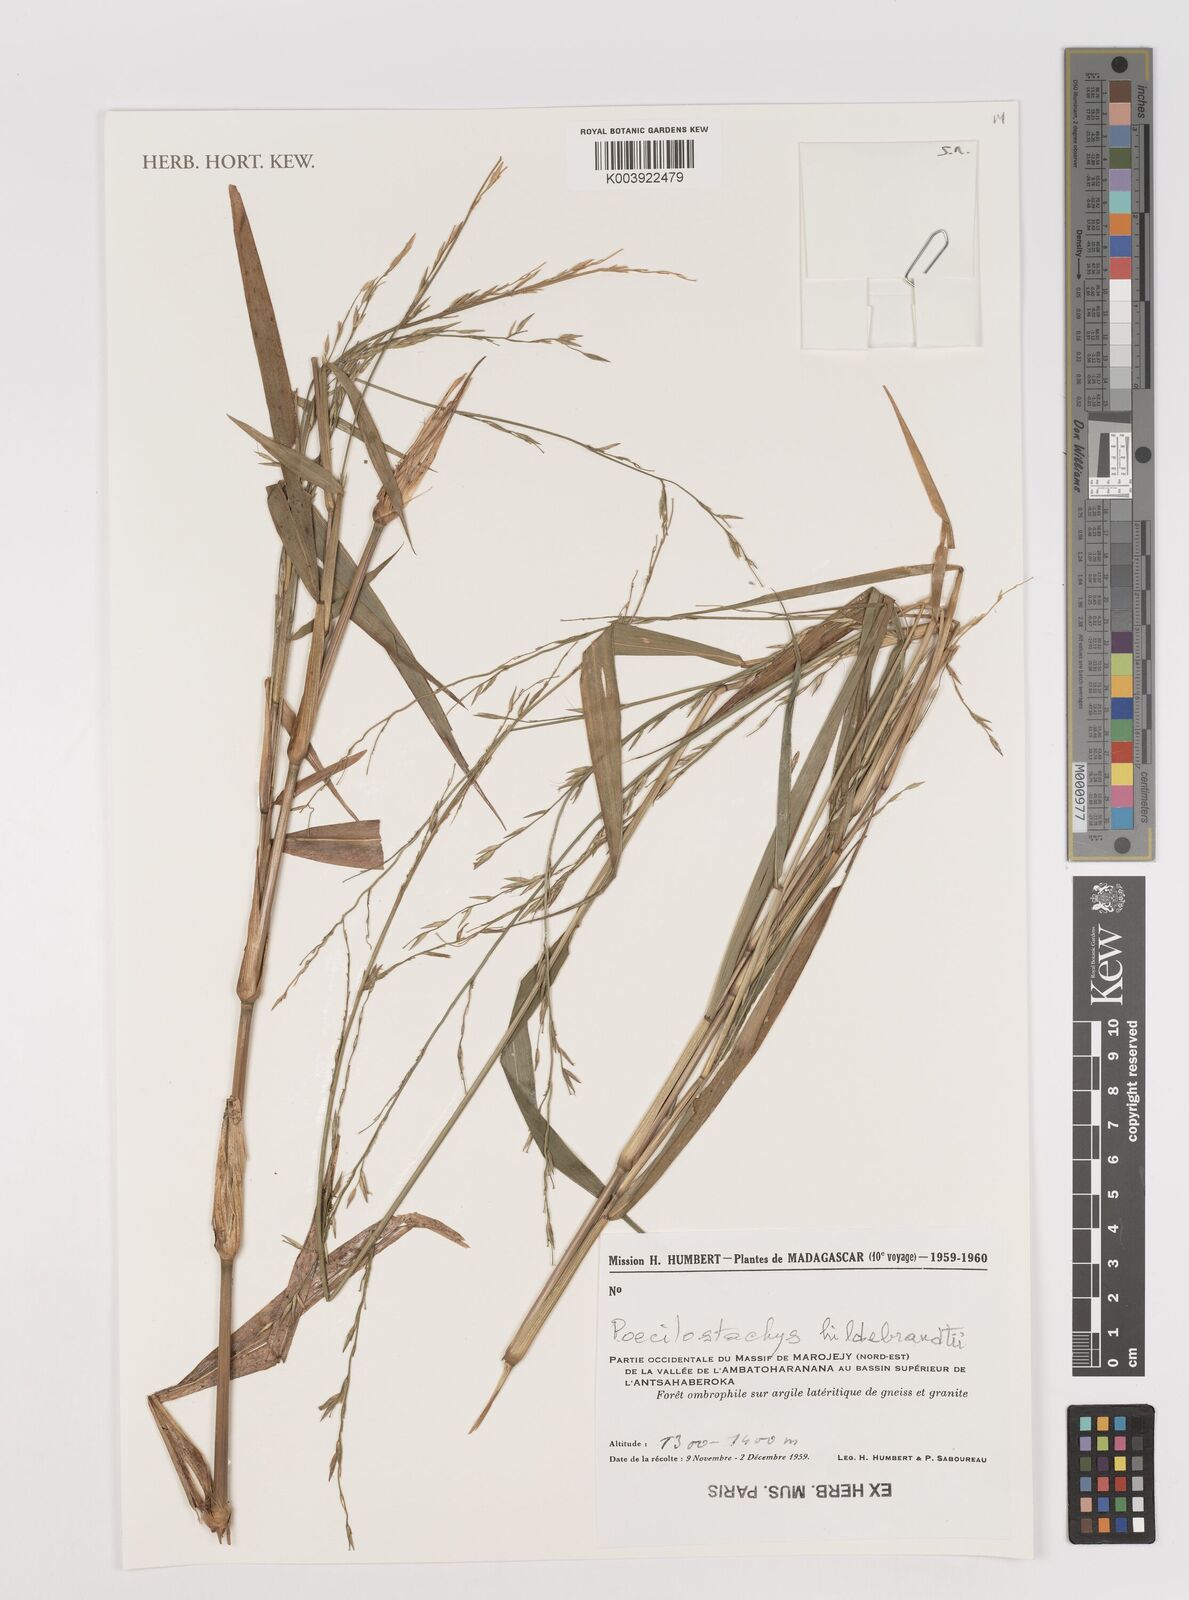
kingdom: Plantae
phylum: Tracheophyta
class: Liliopsida
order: Poales
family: Poaceae
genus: Poecilostachys
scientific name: Poecilostachys hildebrandtii
